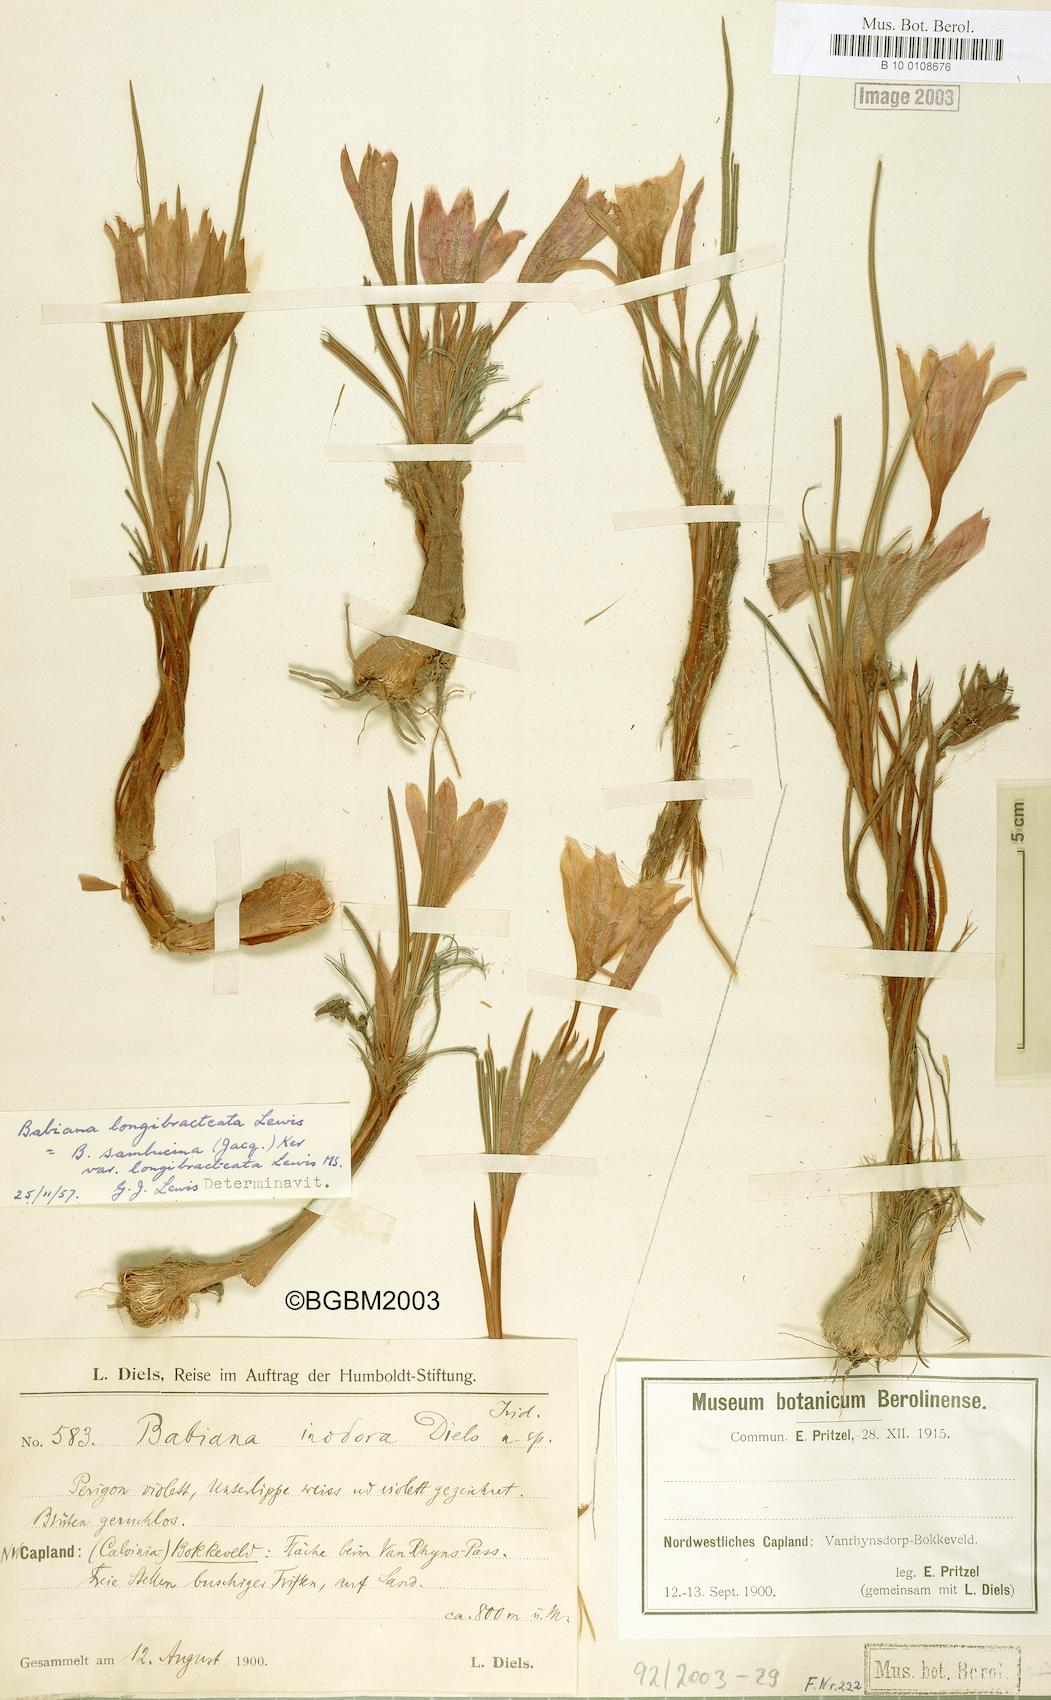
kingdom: Plantae
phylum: Tracheophyta
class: Liliopsida
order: Asparagales
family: Iridaceae
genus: Babiana
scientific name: Babiana sambucina
